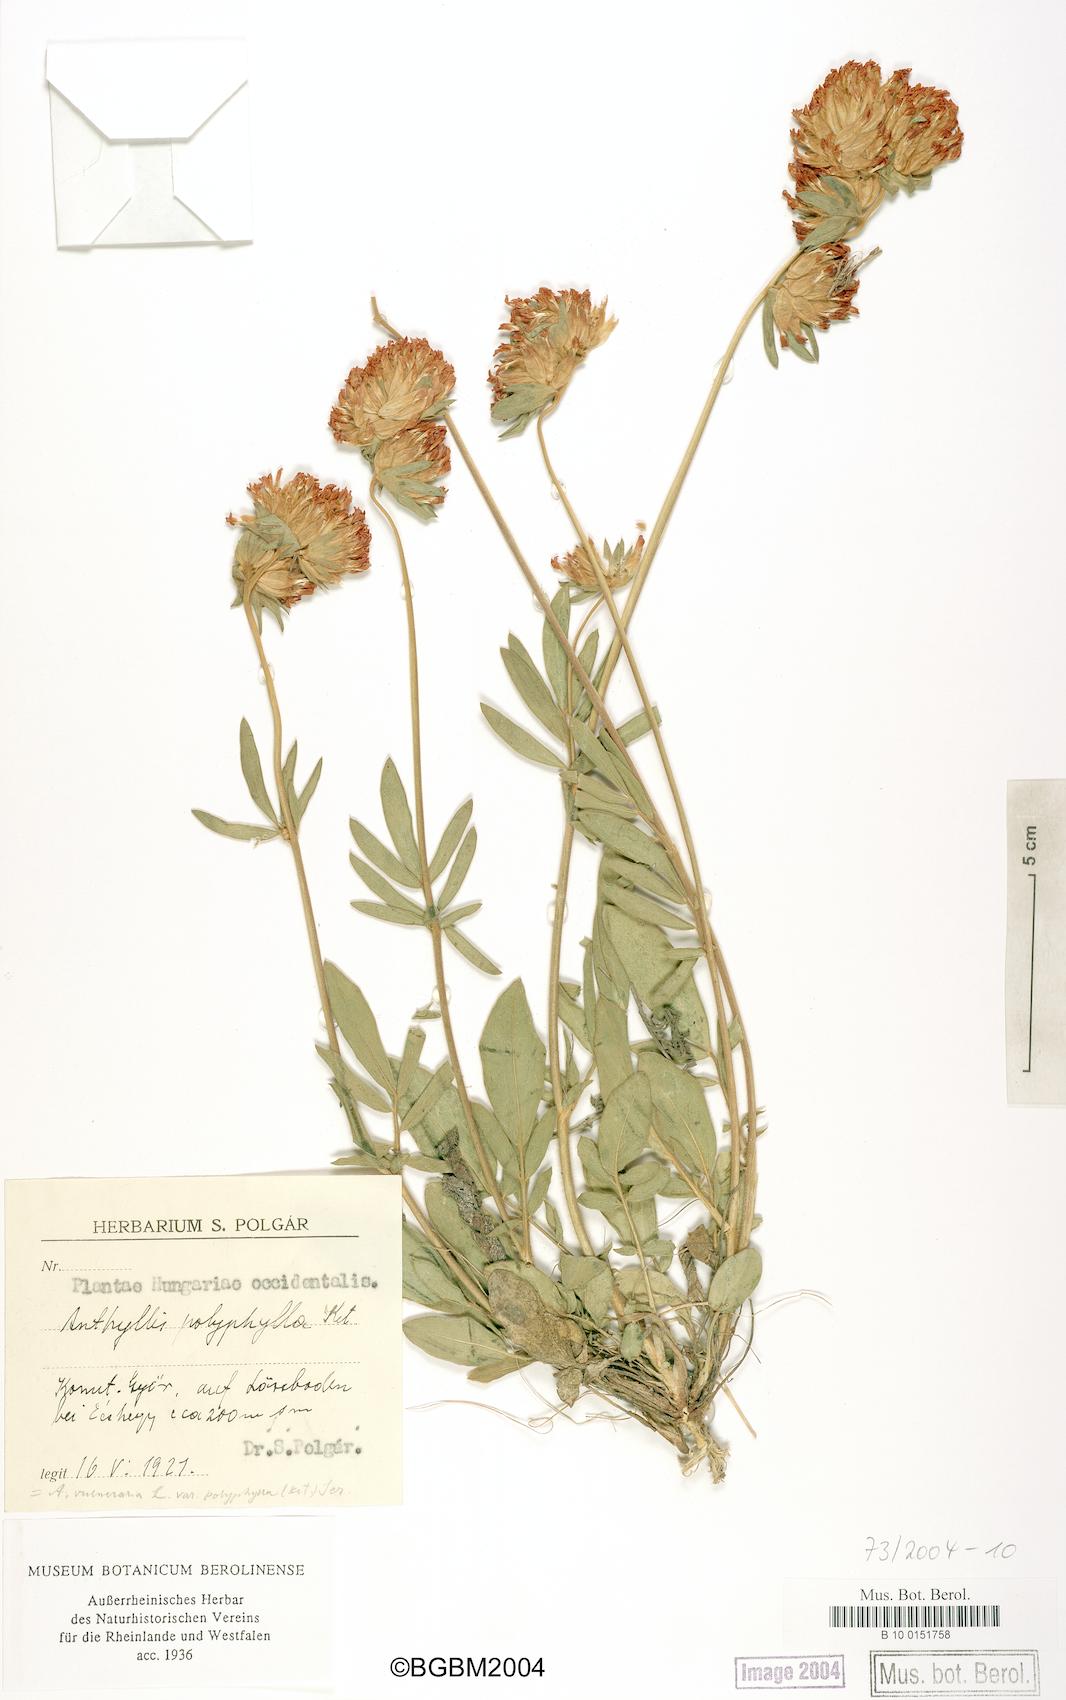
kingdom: Plantae
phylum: Tracheophyta
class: Magnoliopsida
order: Fabales
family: Fabaceae
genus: Anthyllis
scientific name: Anthyllis vulneraria
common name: Kidney vetch
